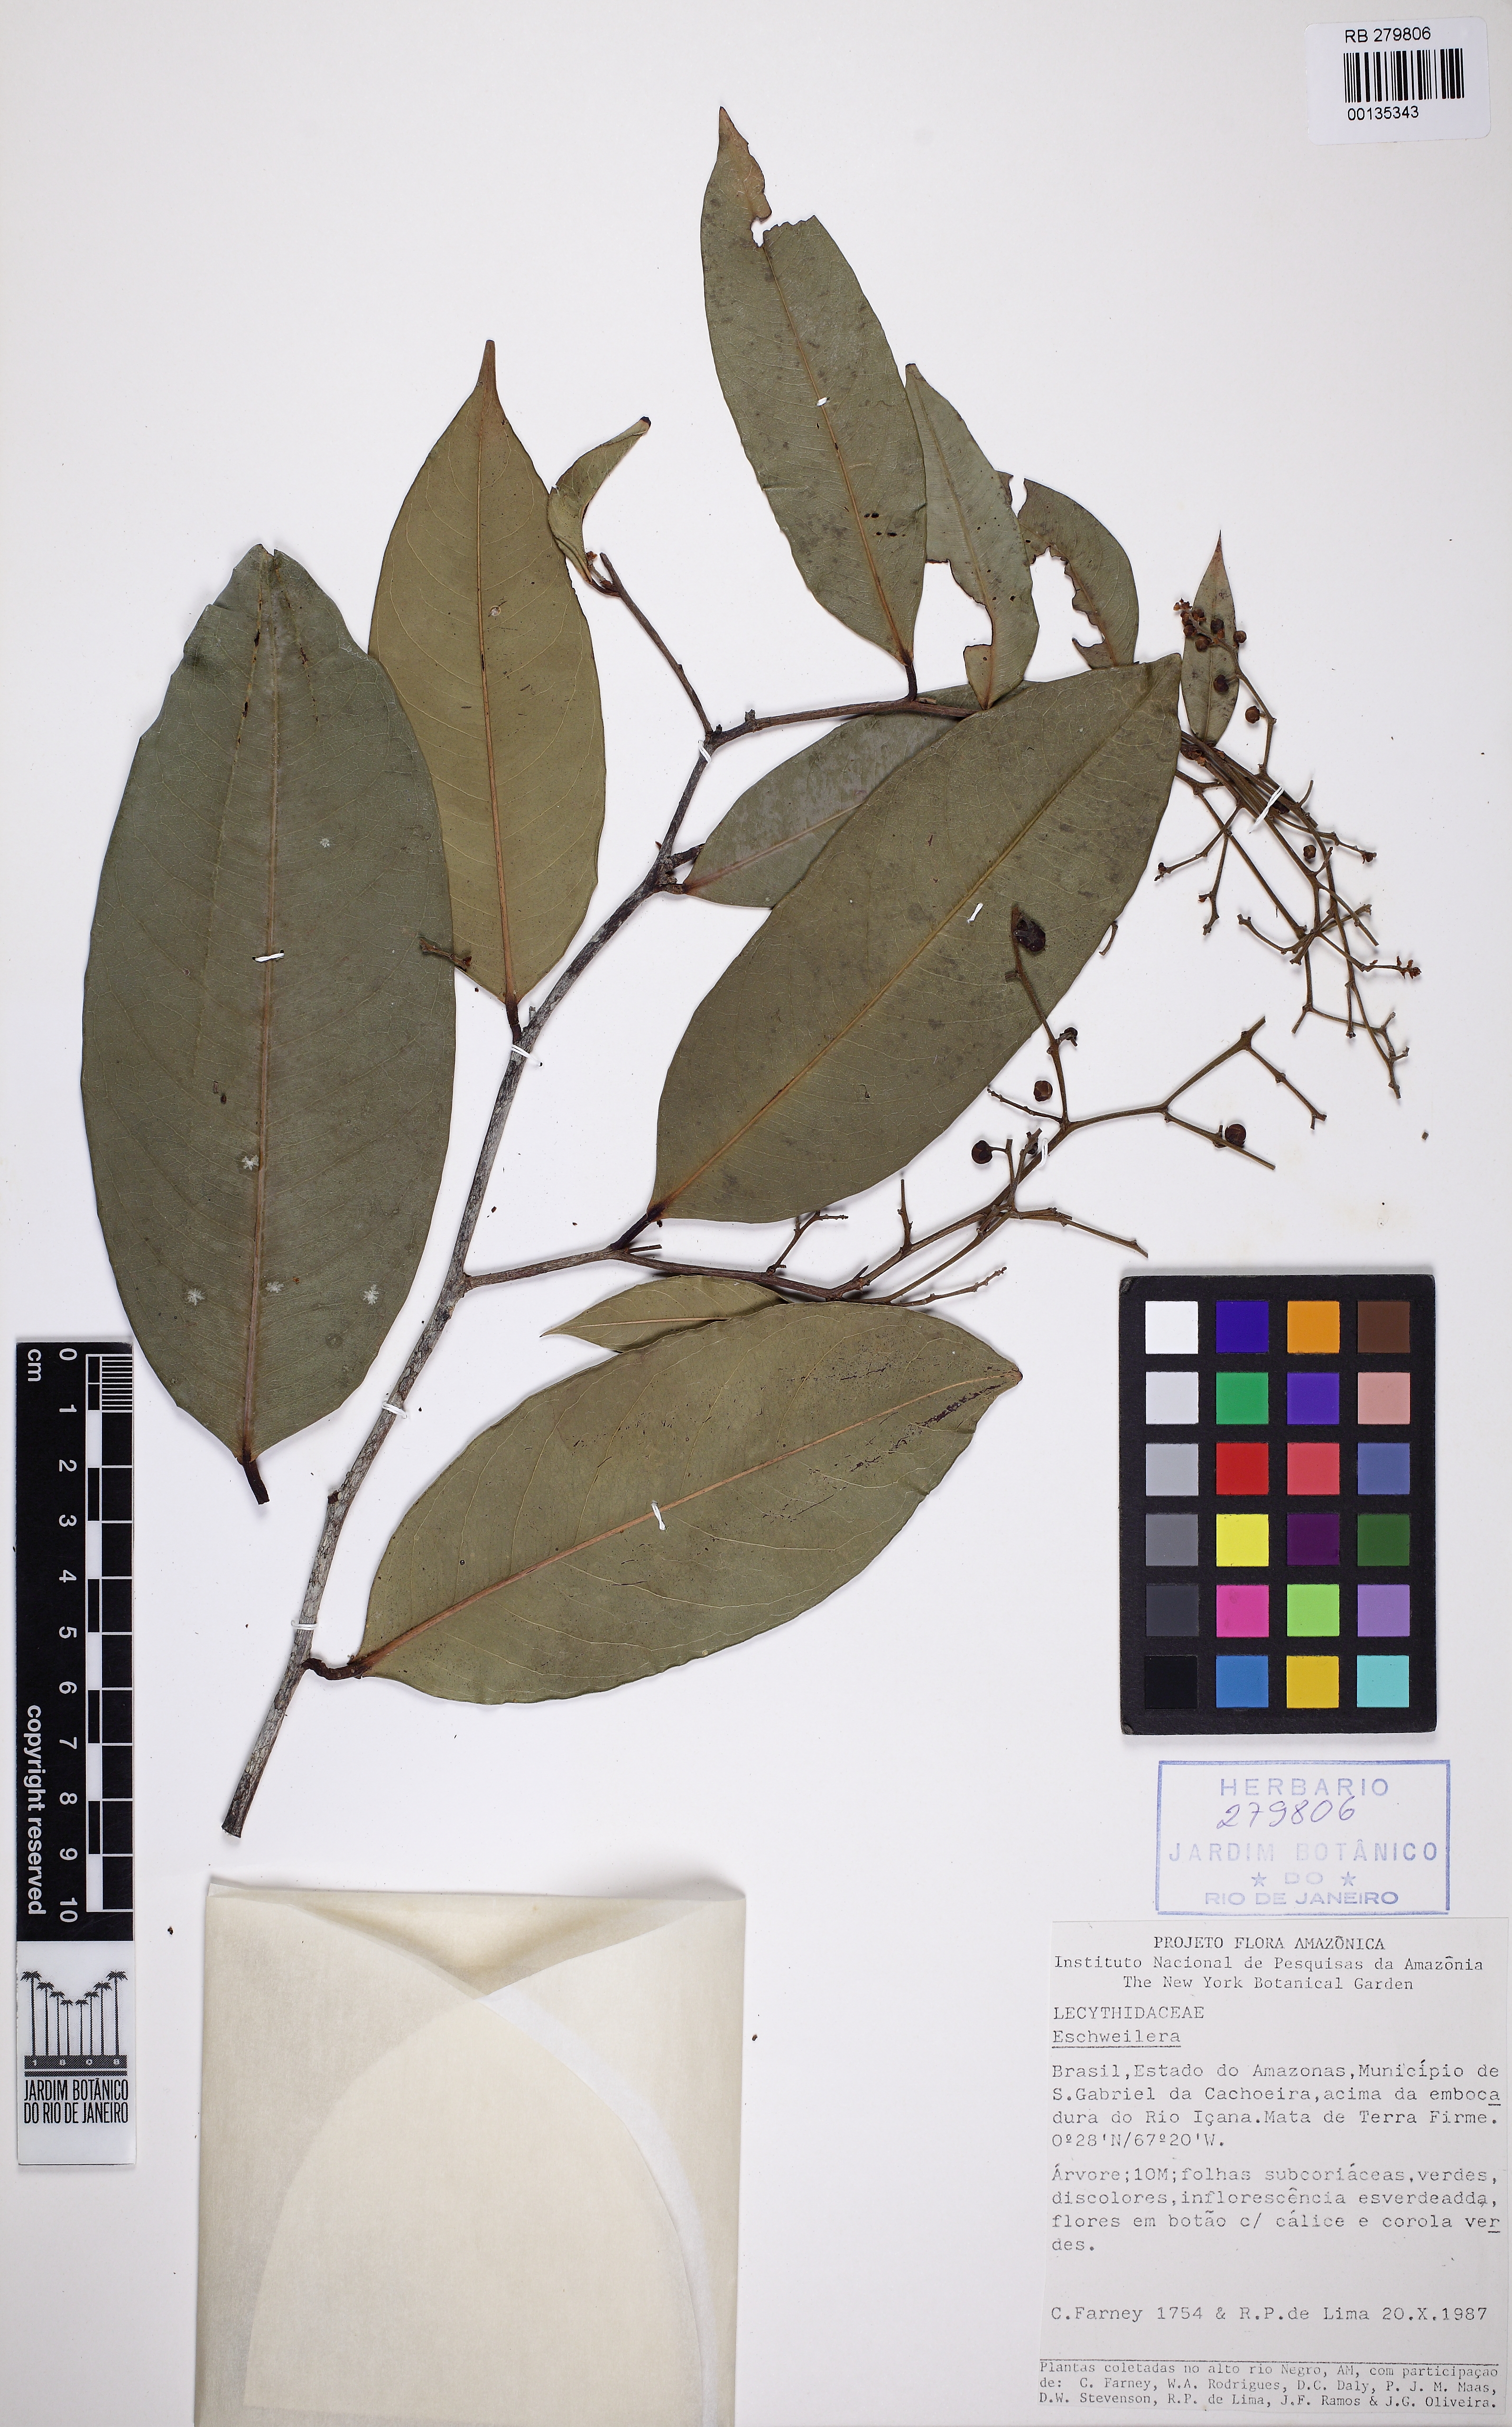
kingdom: Plantae
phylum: Tracheophyta
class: Magnoliopsida
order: Ericales
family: Lecythidaceae
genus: Eschweilera
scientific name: Eschweilera micrantha
